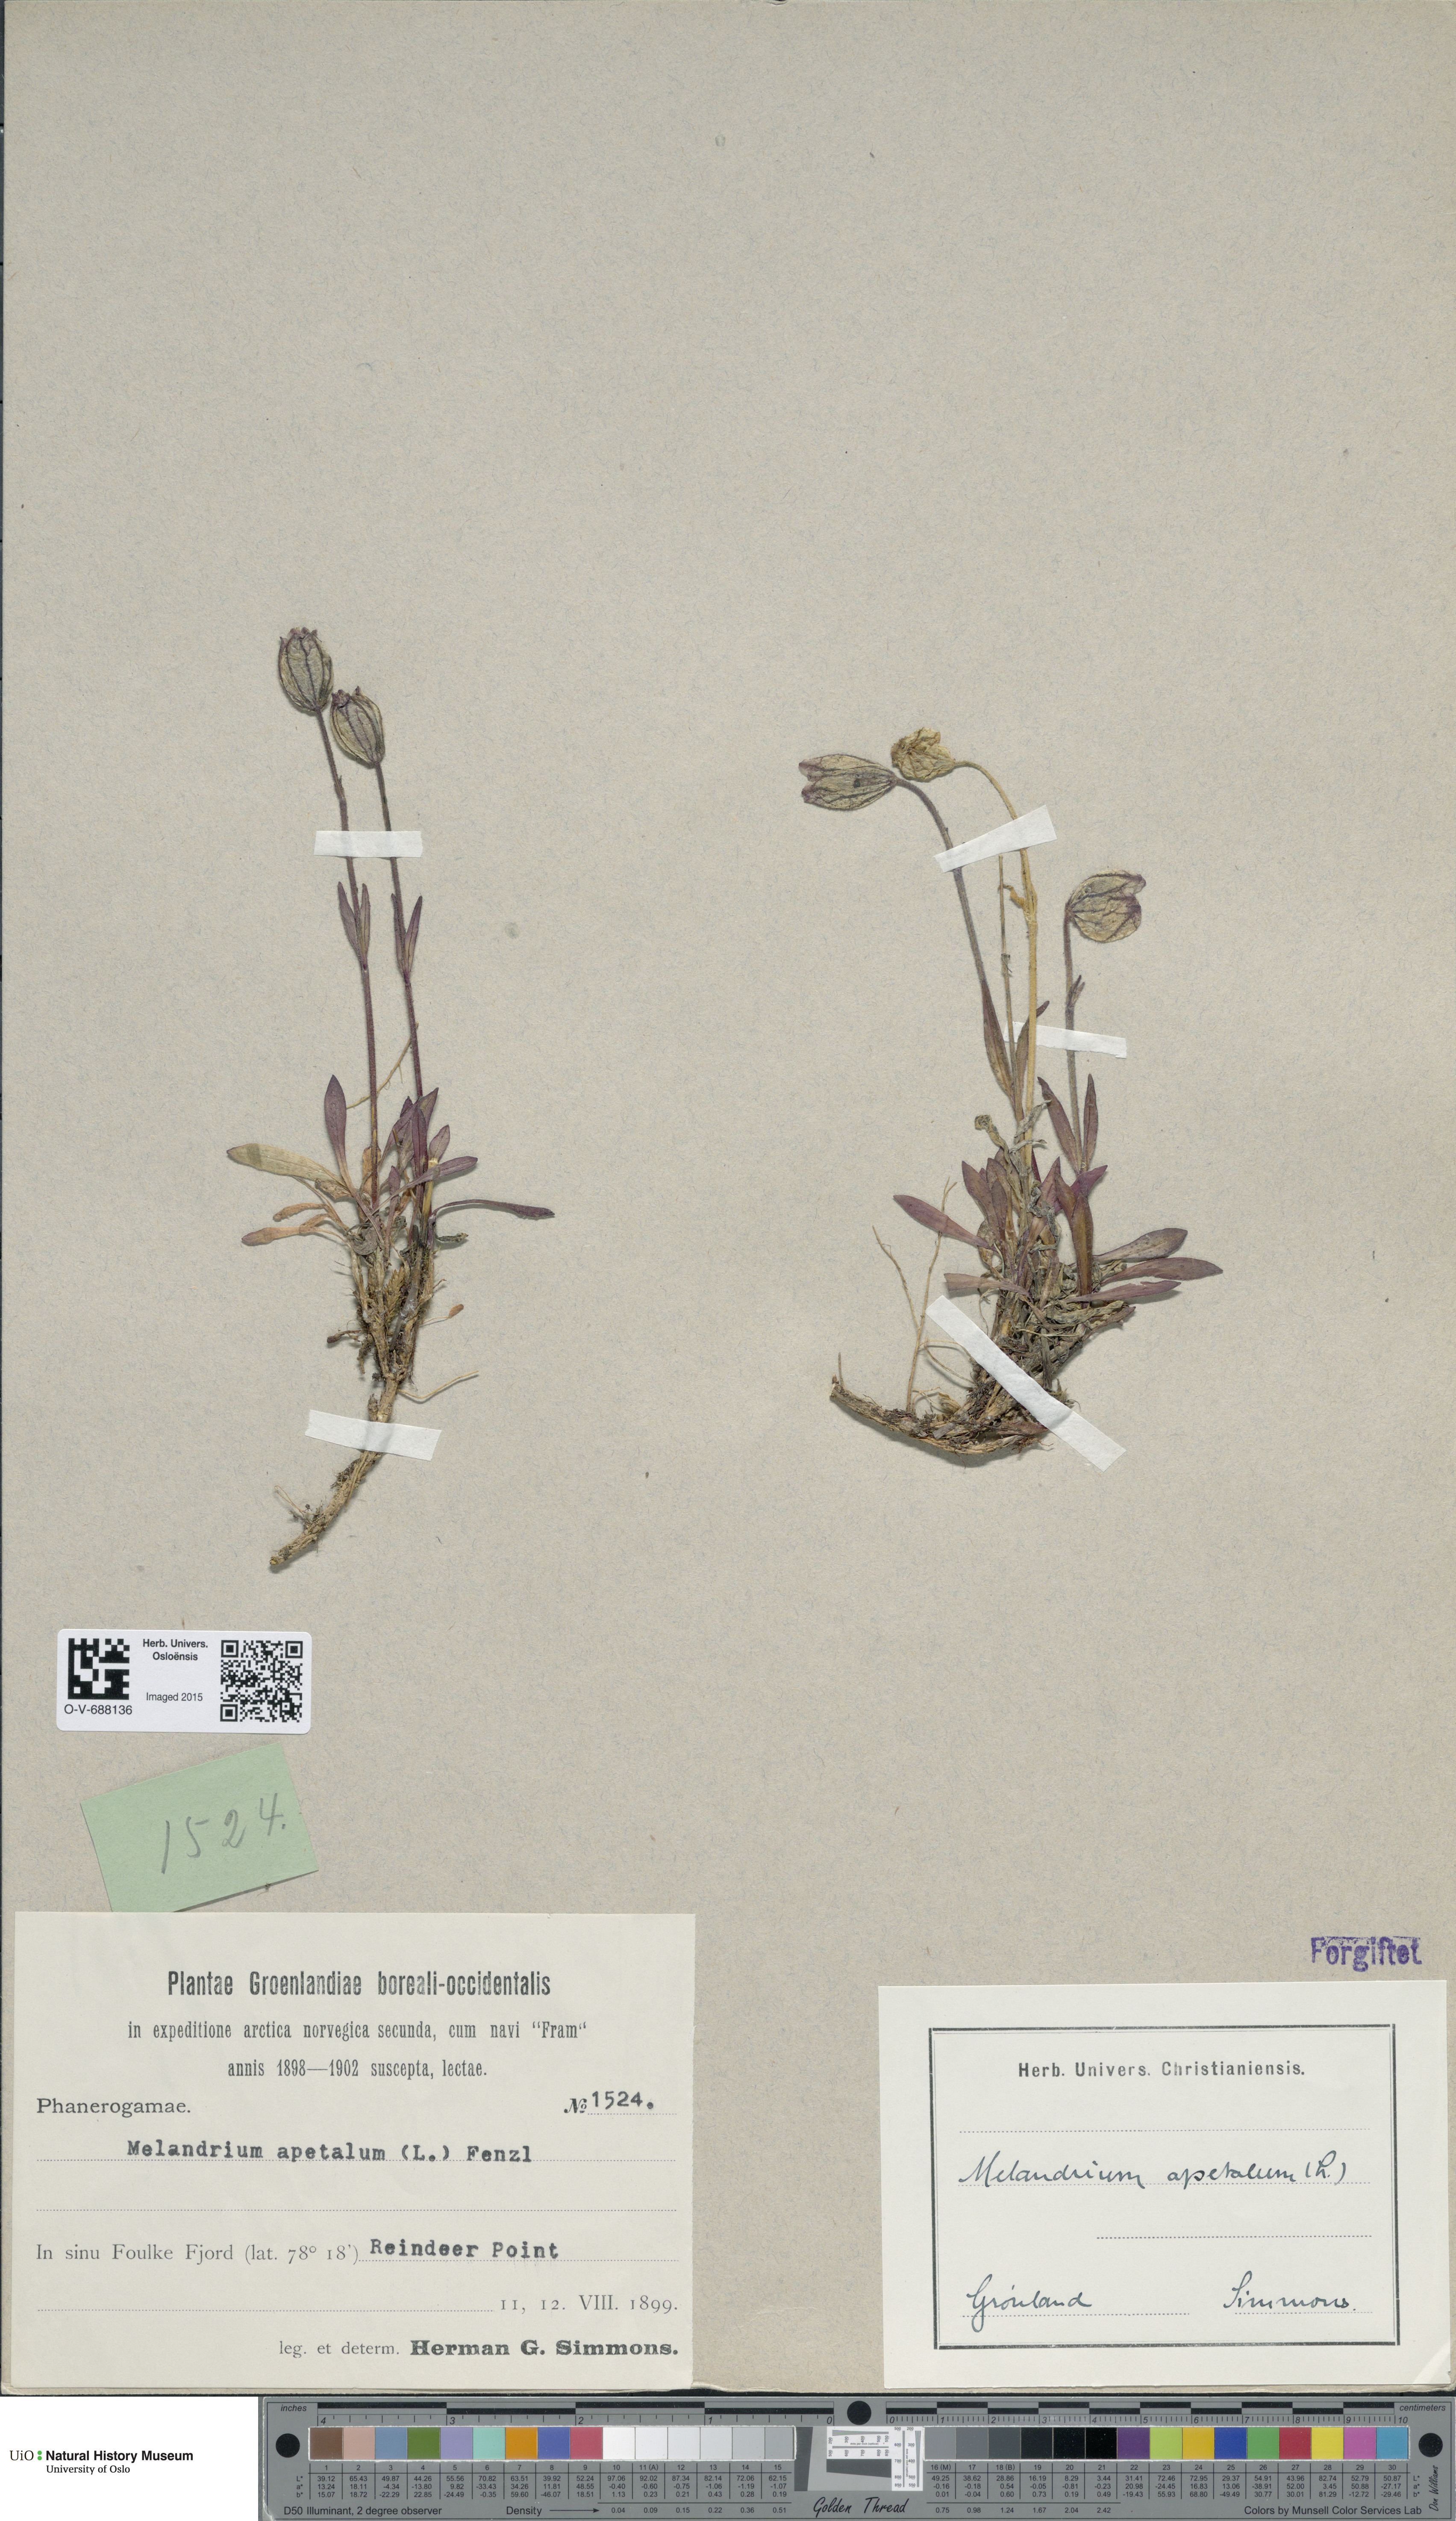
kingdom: Plantae
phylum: Tracheophyta
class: Magnoliopsida
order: Caryophyllales
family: Caryophyllaceae
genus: Silene
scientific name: Silene wahlbergella
